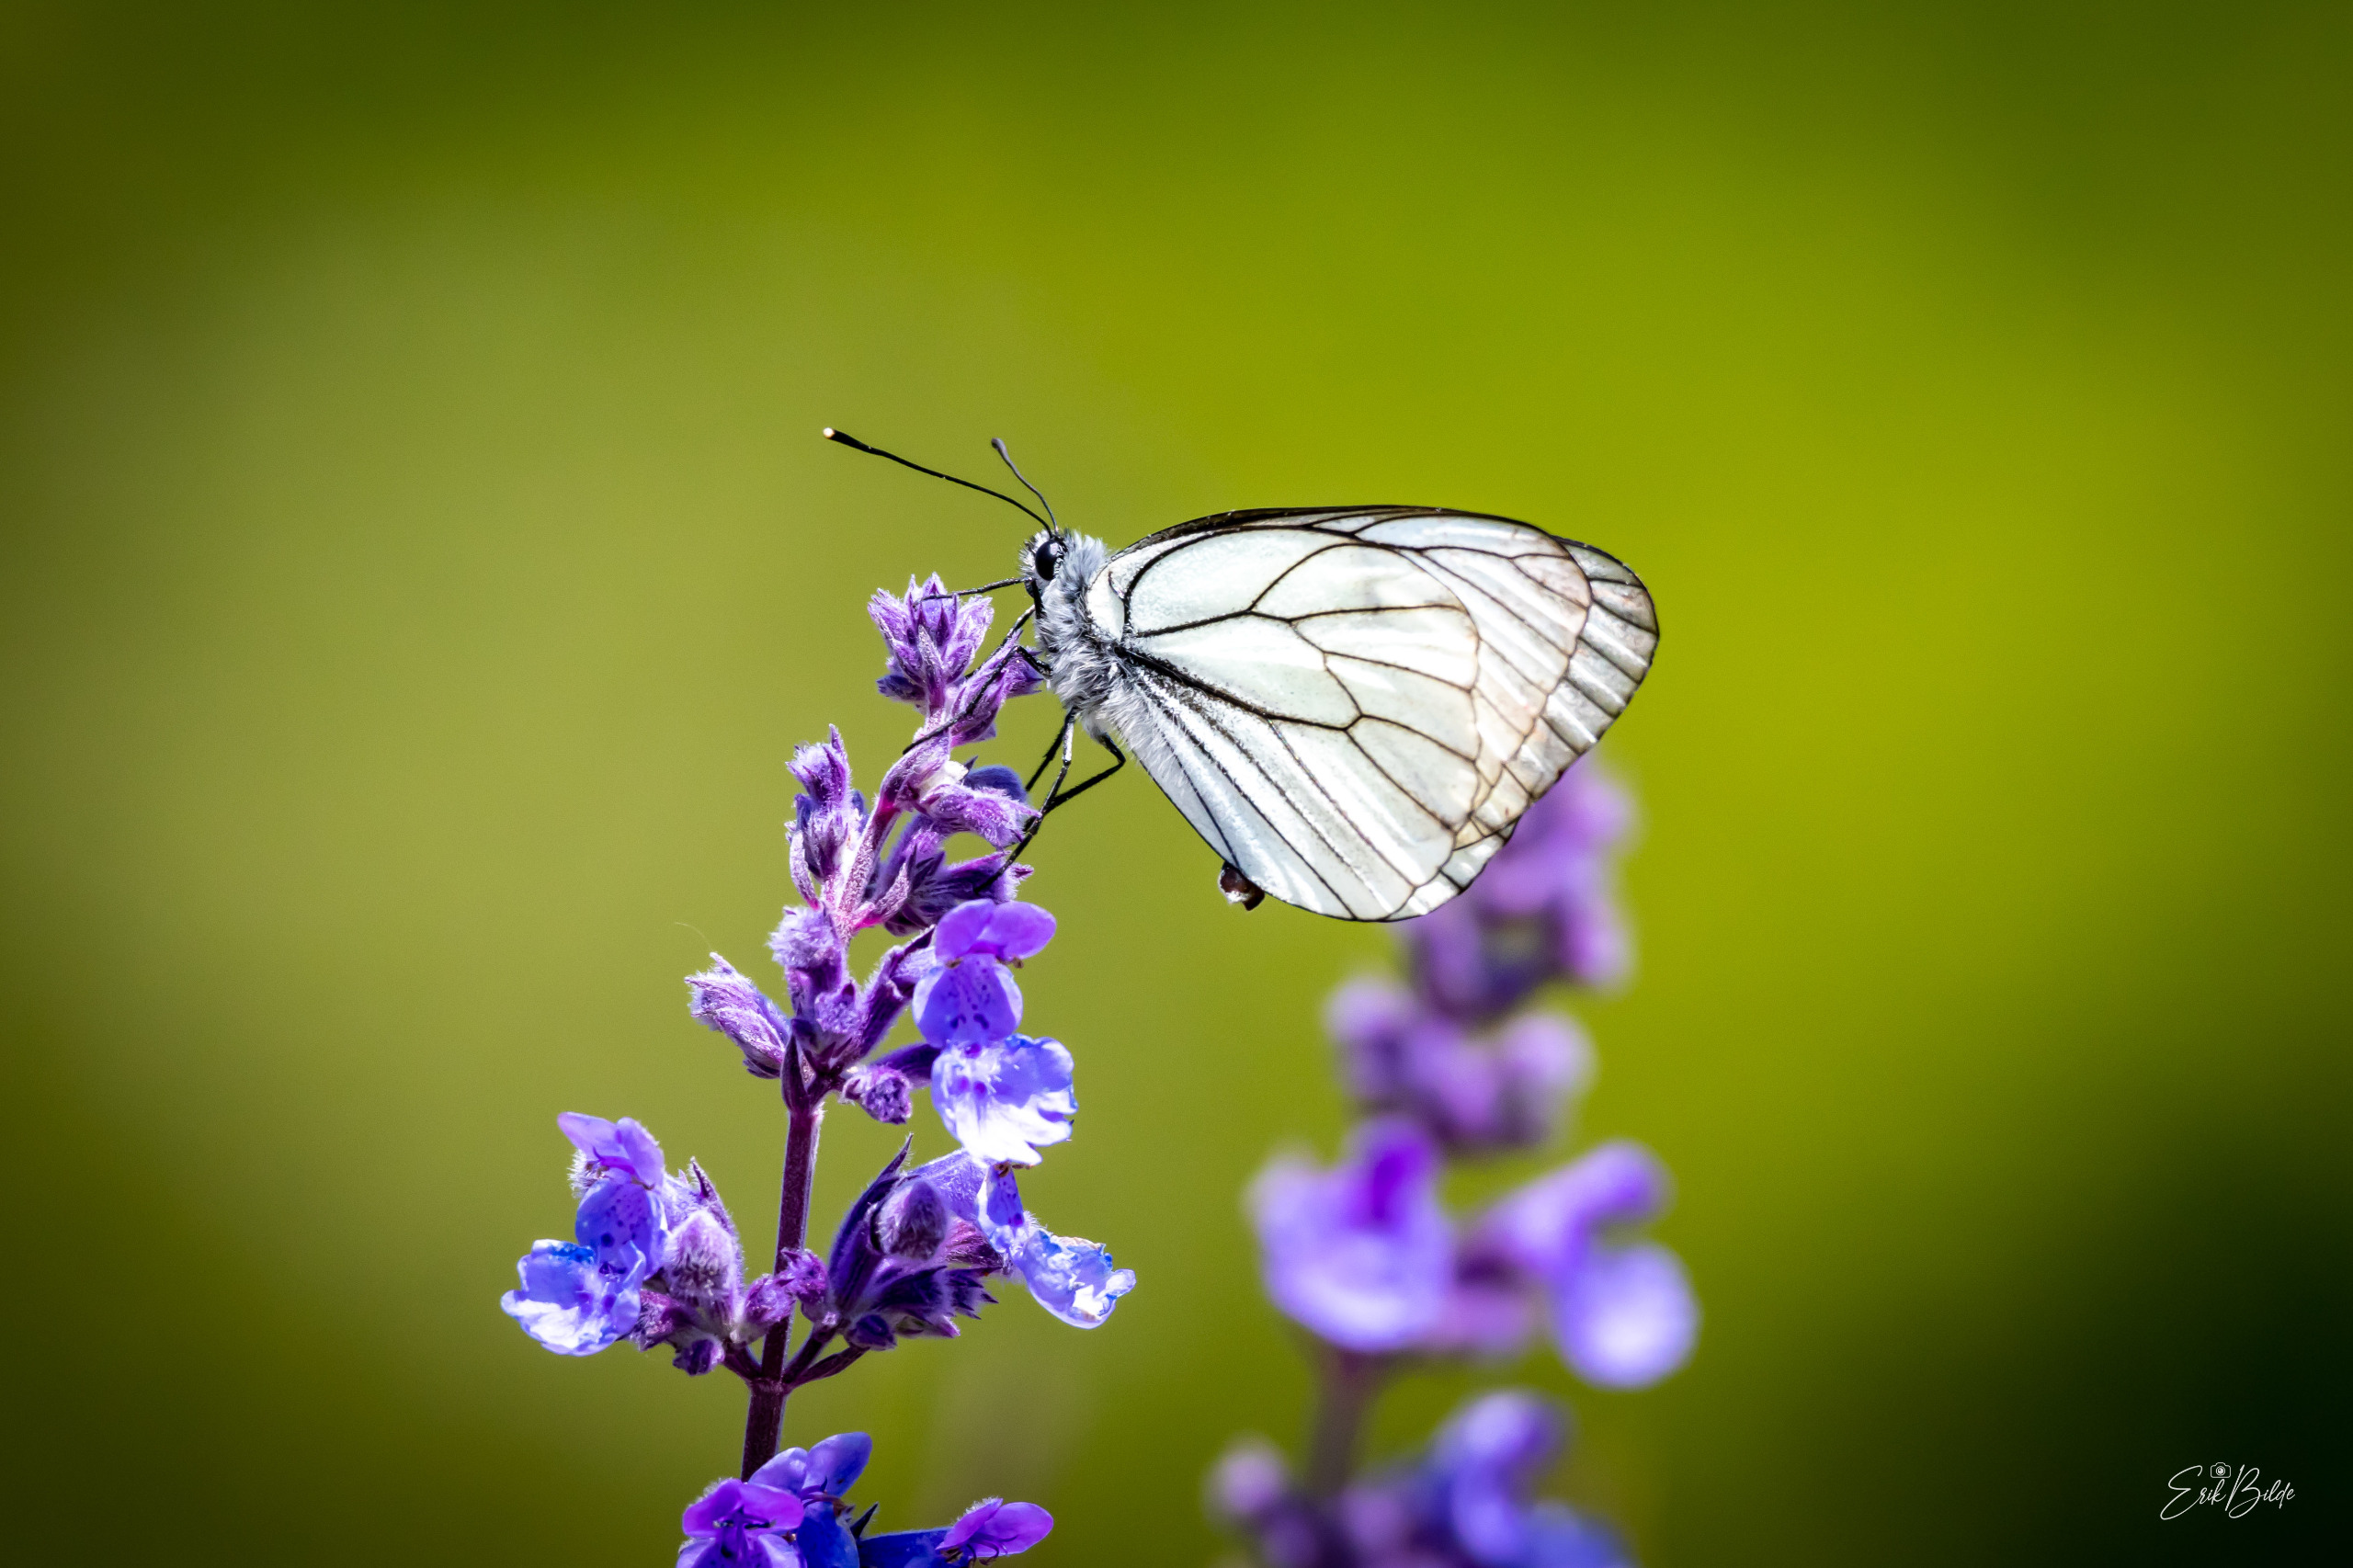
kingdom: Animalia
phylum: Arthropoda
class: Insecta
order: Lepidoptera
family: Pieridae
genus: Aporia
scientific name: Aporia crataegi
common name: Sortåret hvidvinge
